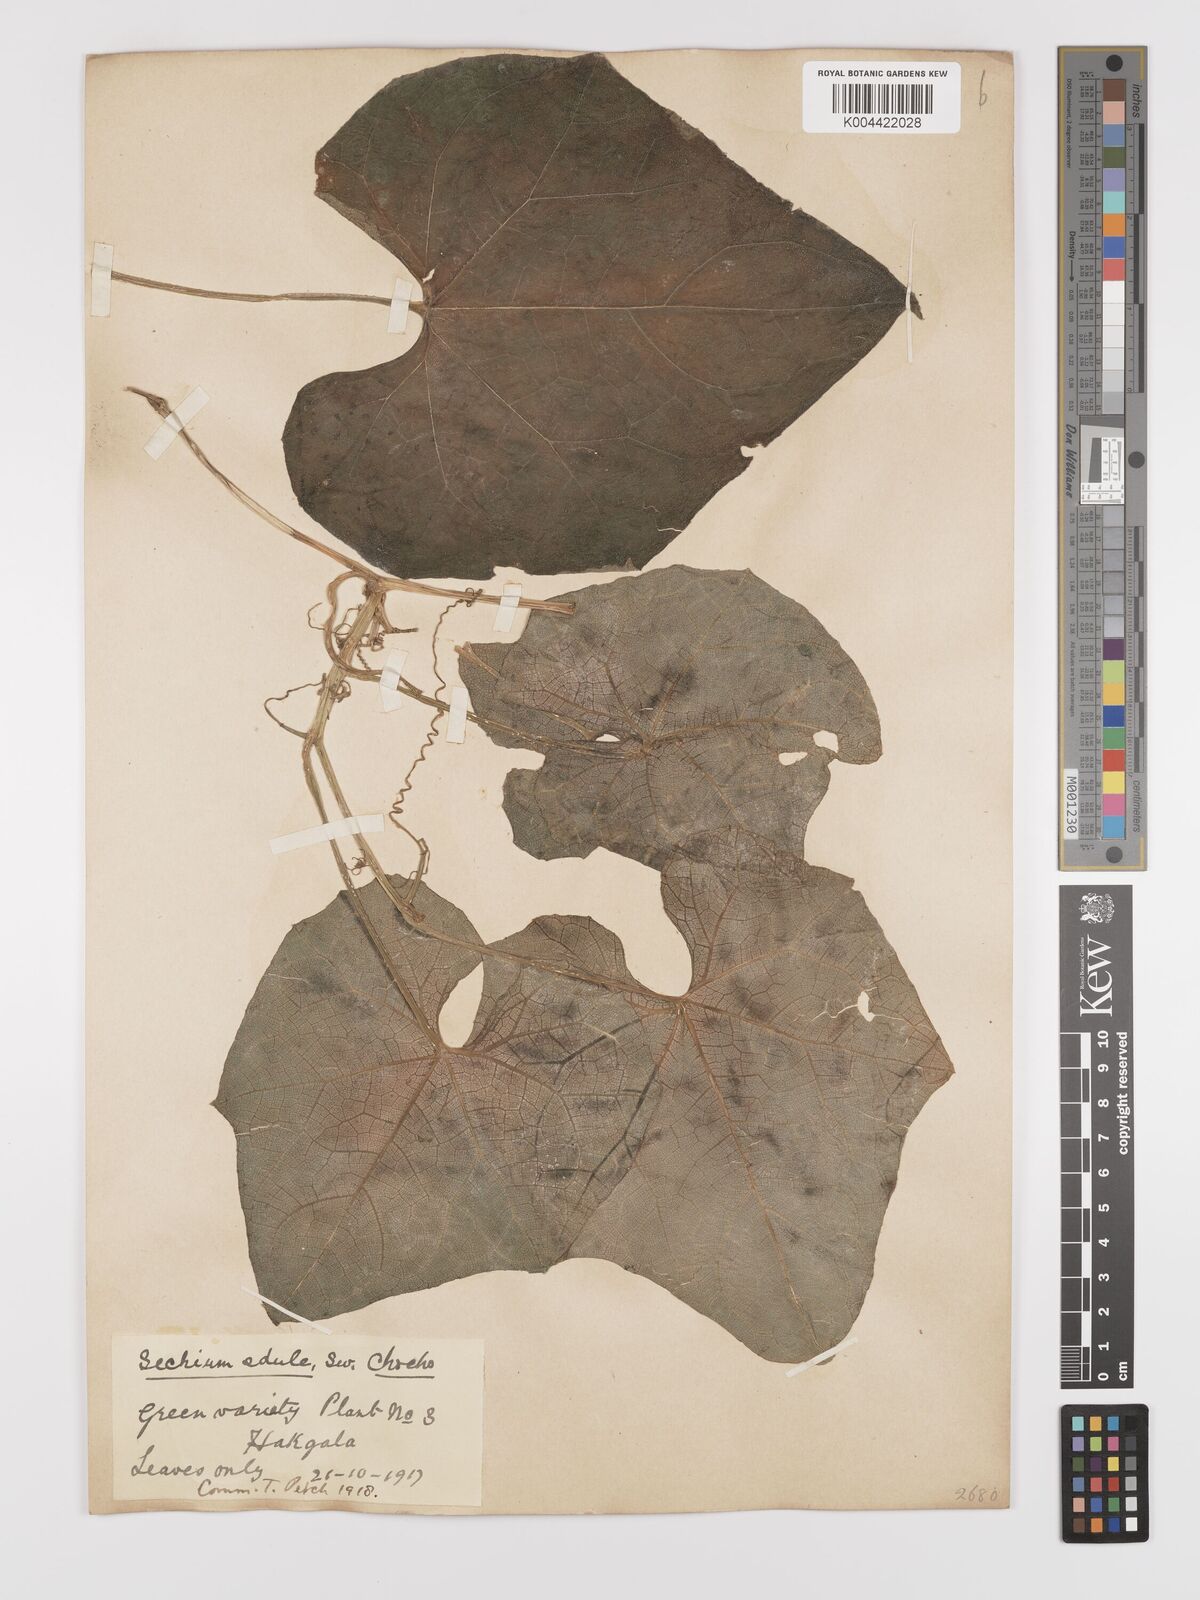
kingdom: Plantae
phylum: Tracheophyta
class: Magnoliopsida
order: Cucurbitales
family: Cucurbitaceae
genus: Sechium
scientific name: Sechium edule
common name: Chayote
